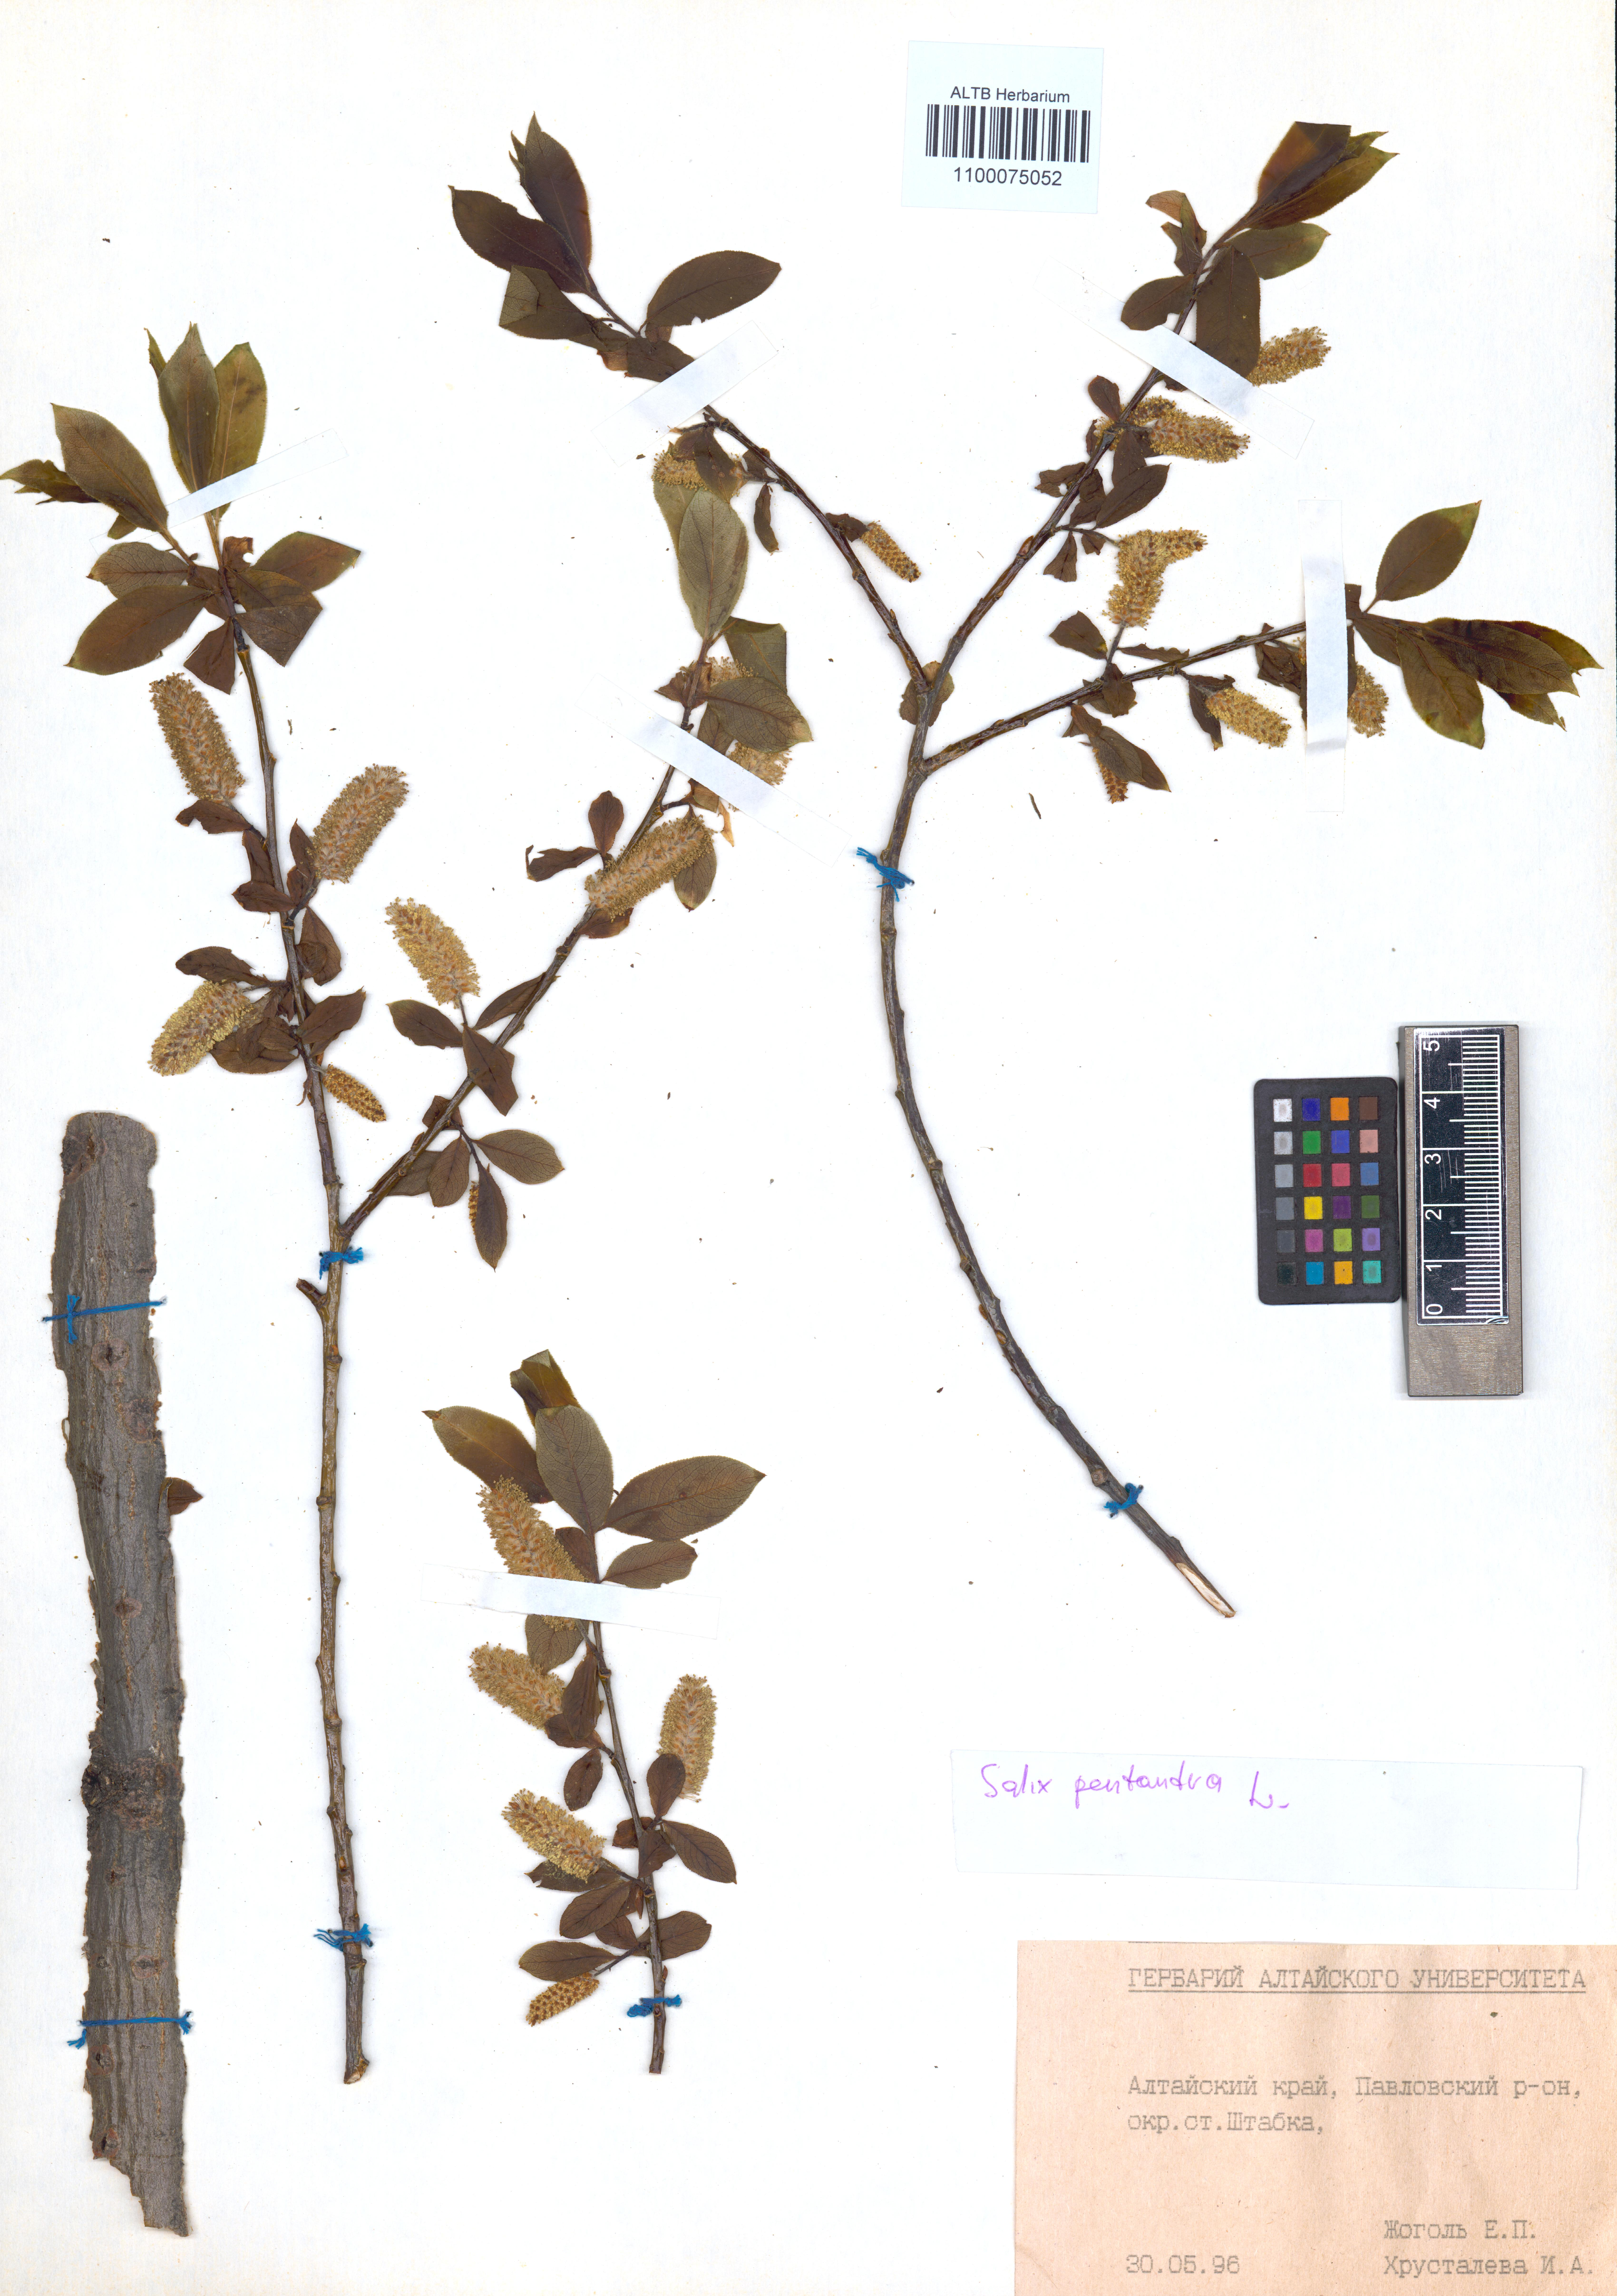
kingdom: Plantae
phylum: Tracheophyta
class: Magnoliopsida
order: Malpighiales
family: Salicaceae
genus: Salix
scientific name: Salix pentandra
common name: Bay willow
